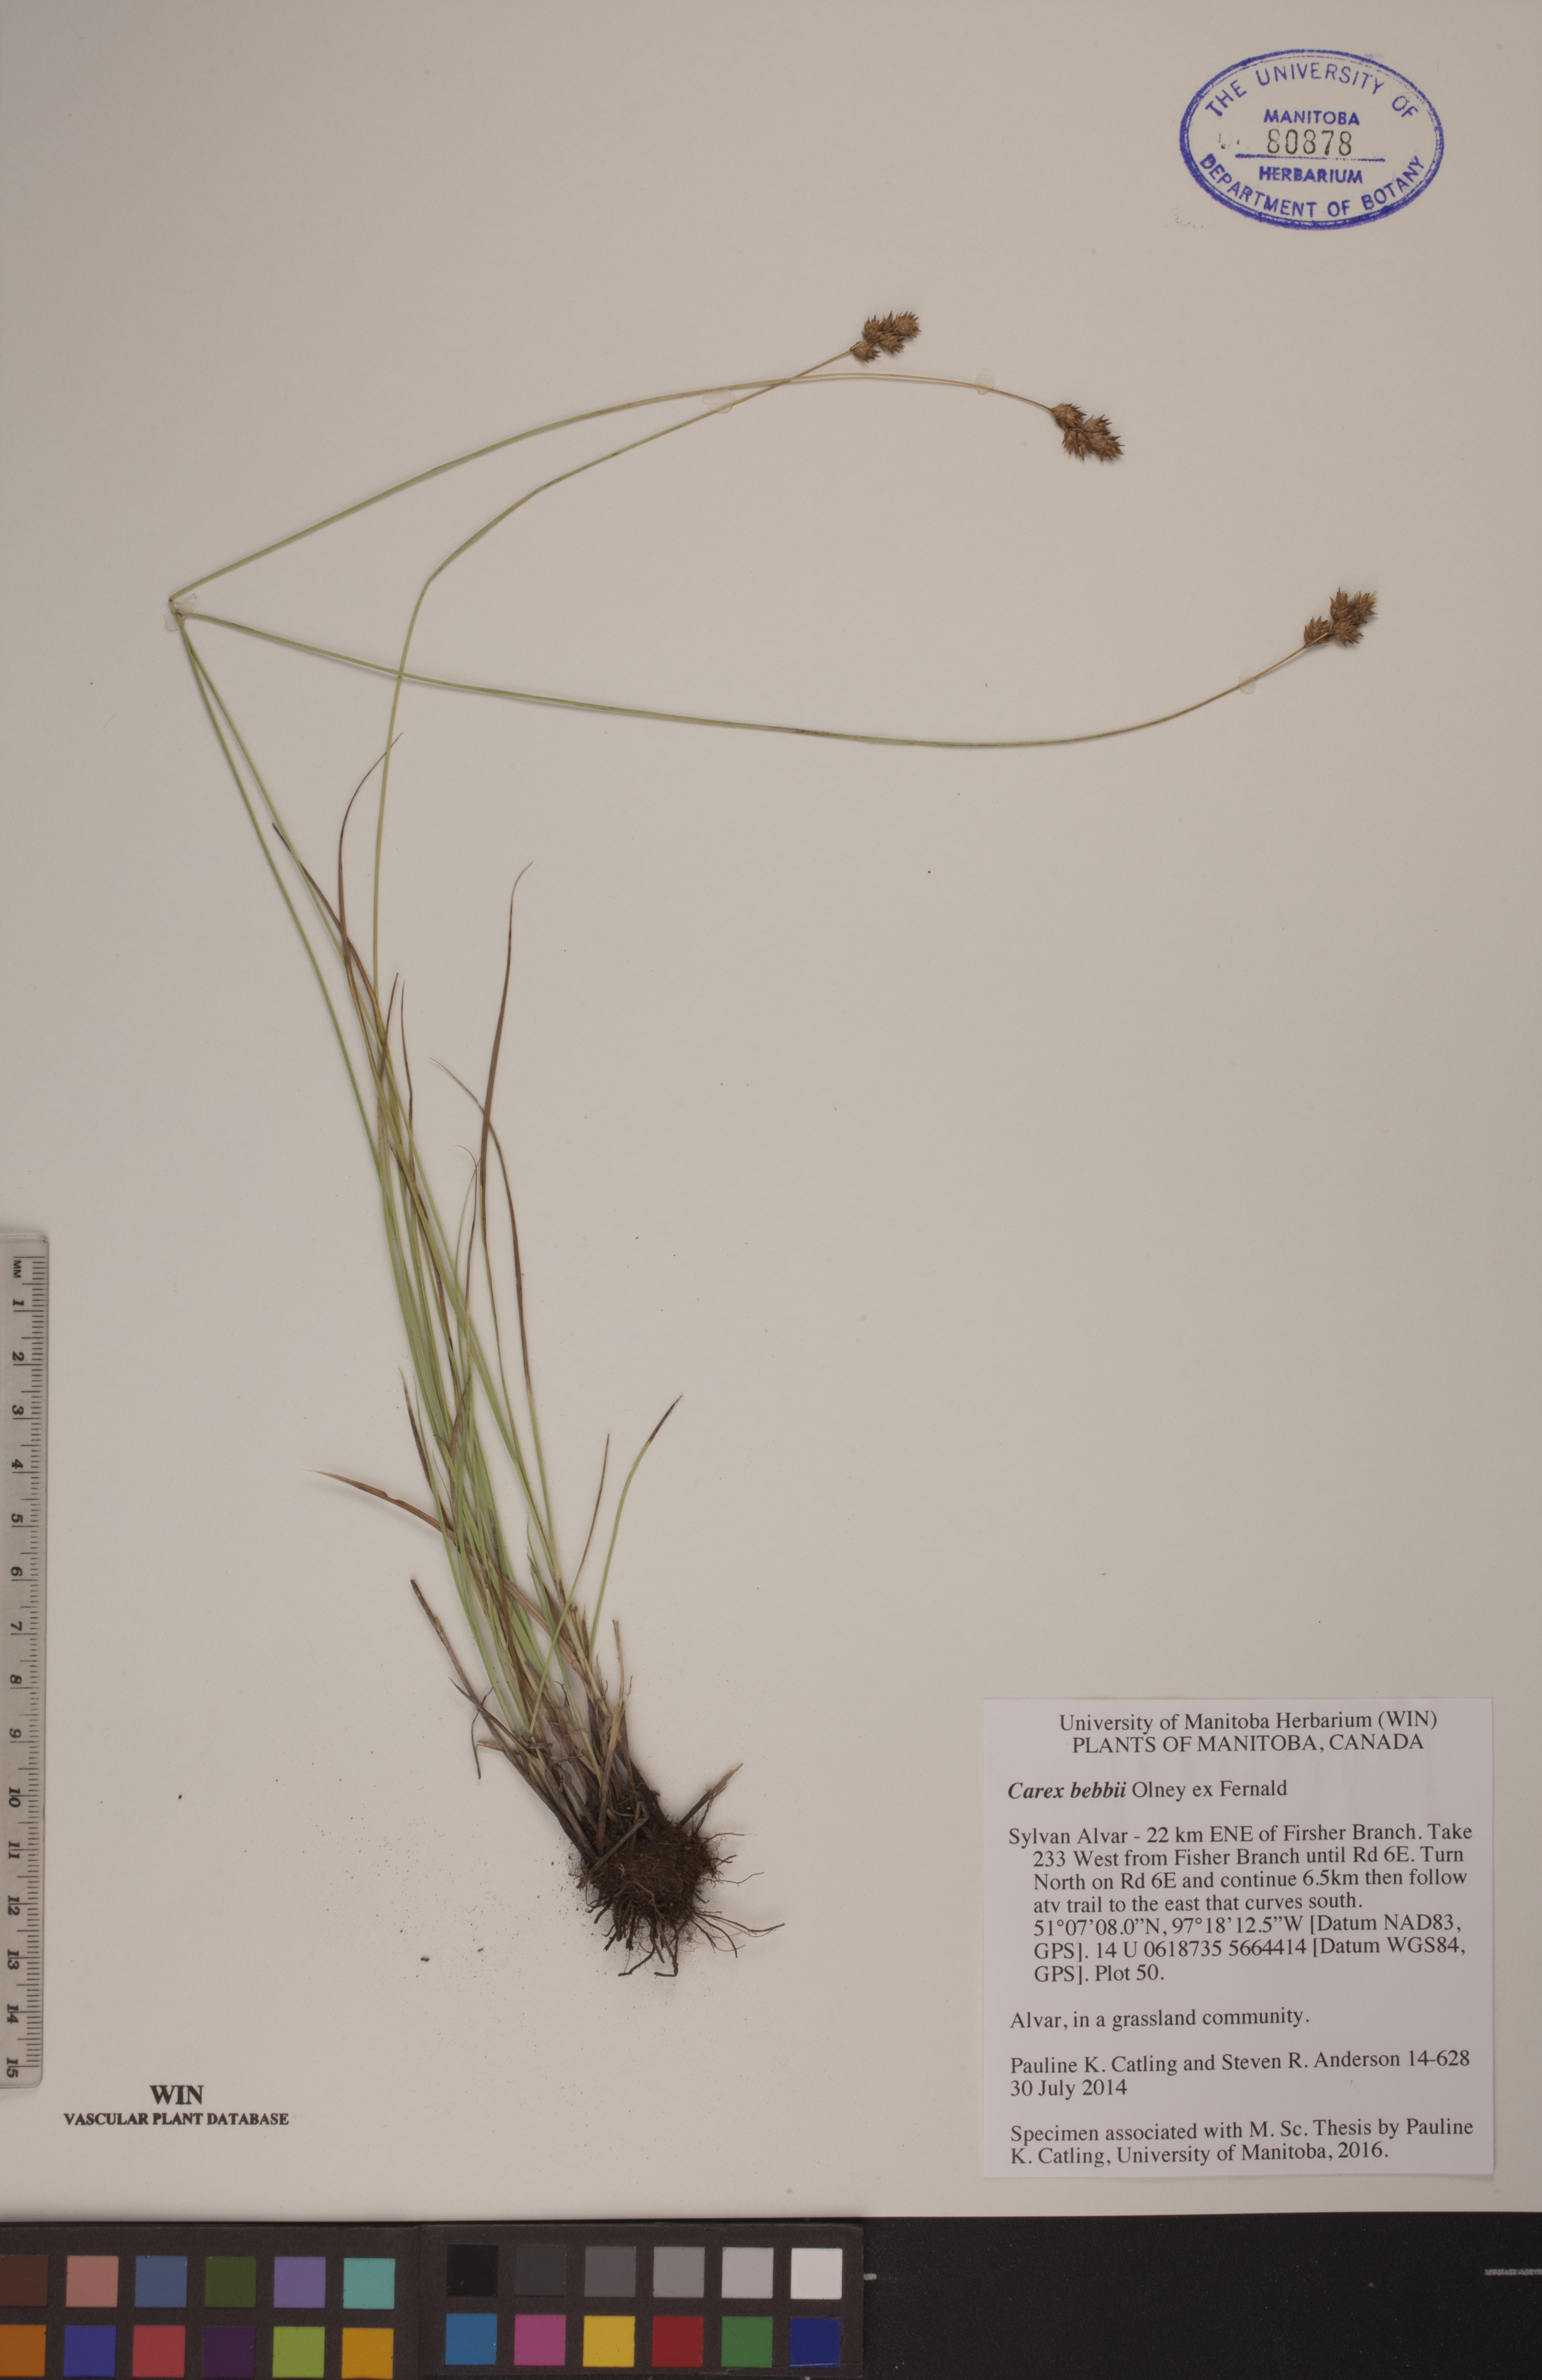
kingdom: Plantae
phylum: Tracheophyta
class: Liliopsida
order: Poales
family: Cyperaceae
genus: Carex
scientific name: Carex bebbii
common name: Bebb's sedge
